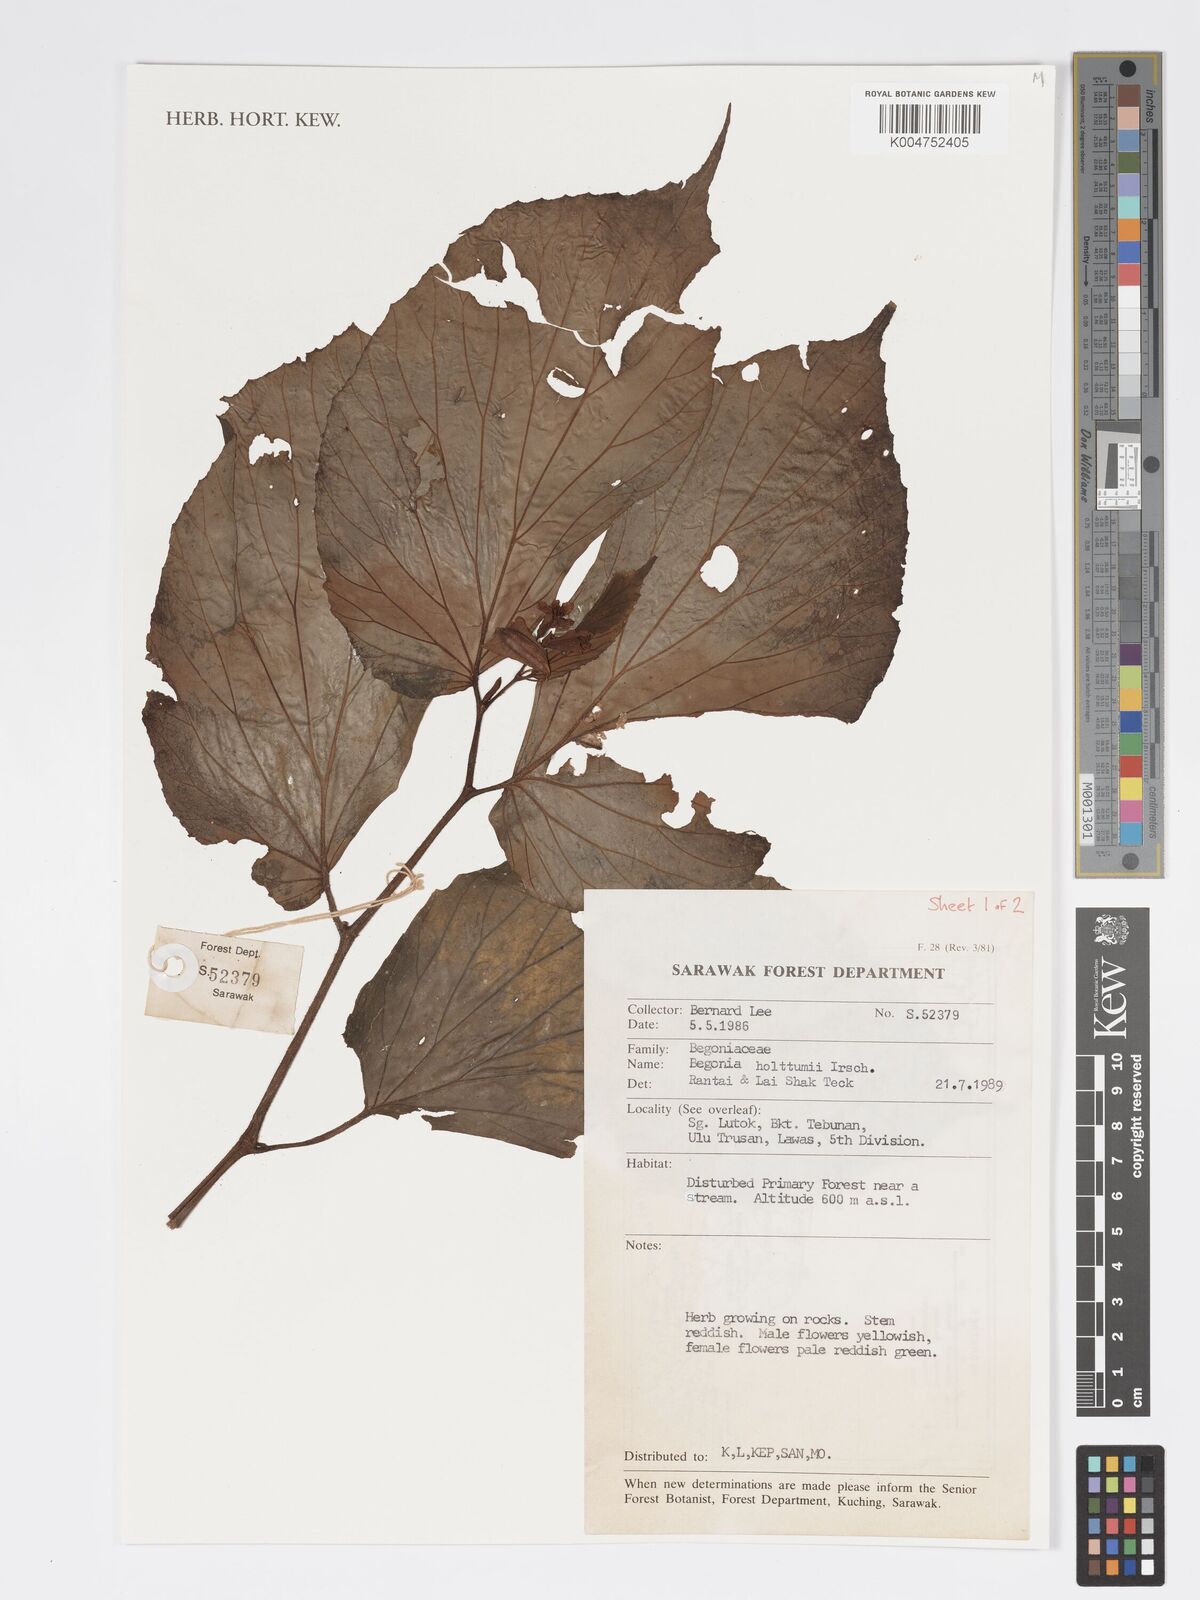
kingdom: Plantae
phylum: Tracheophyta
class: Magnoliopsida
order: Cucurbitales
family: Begoniaceae
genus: Begonia
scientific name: Begonia holttumii
